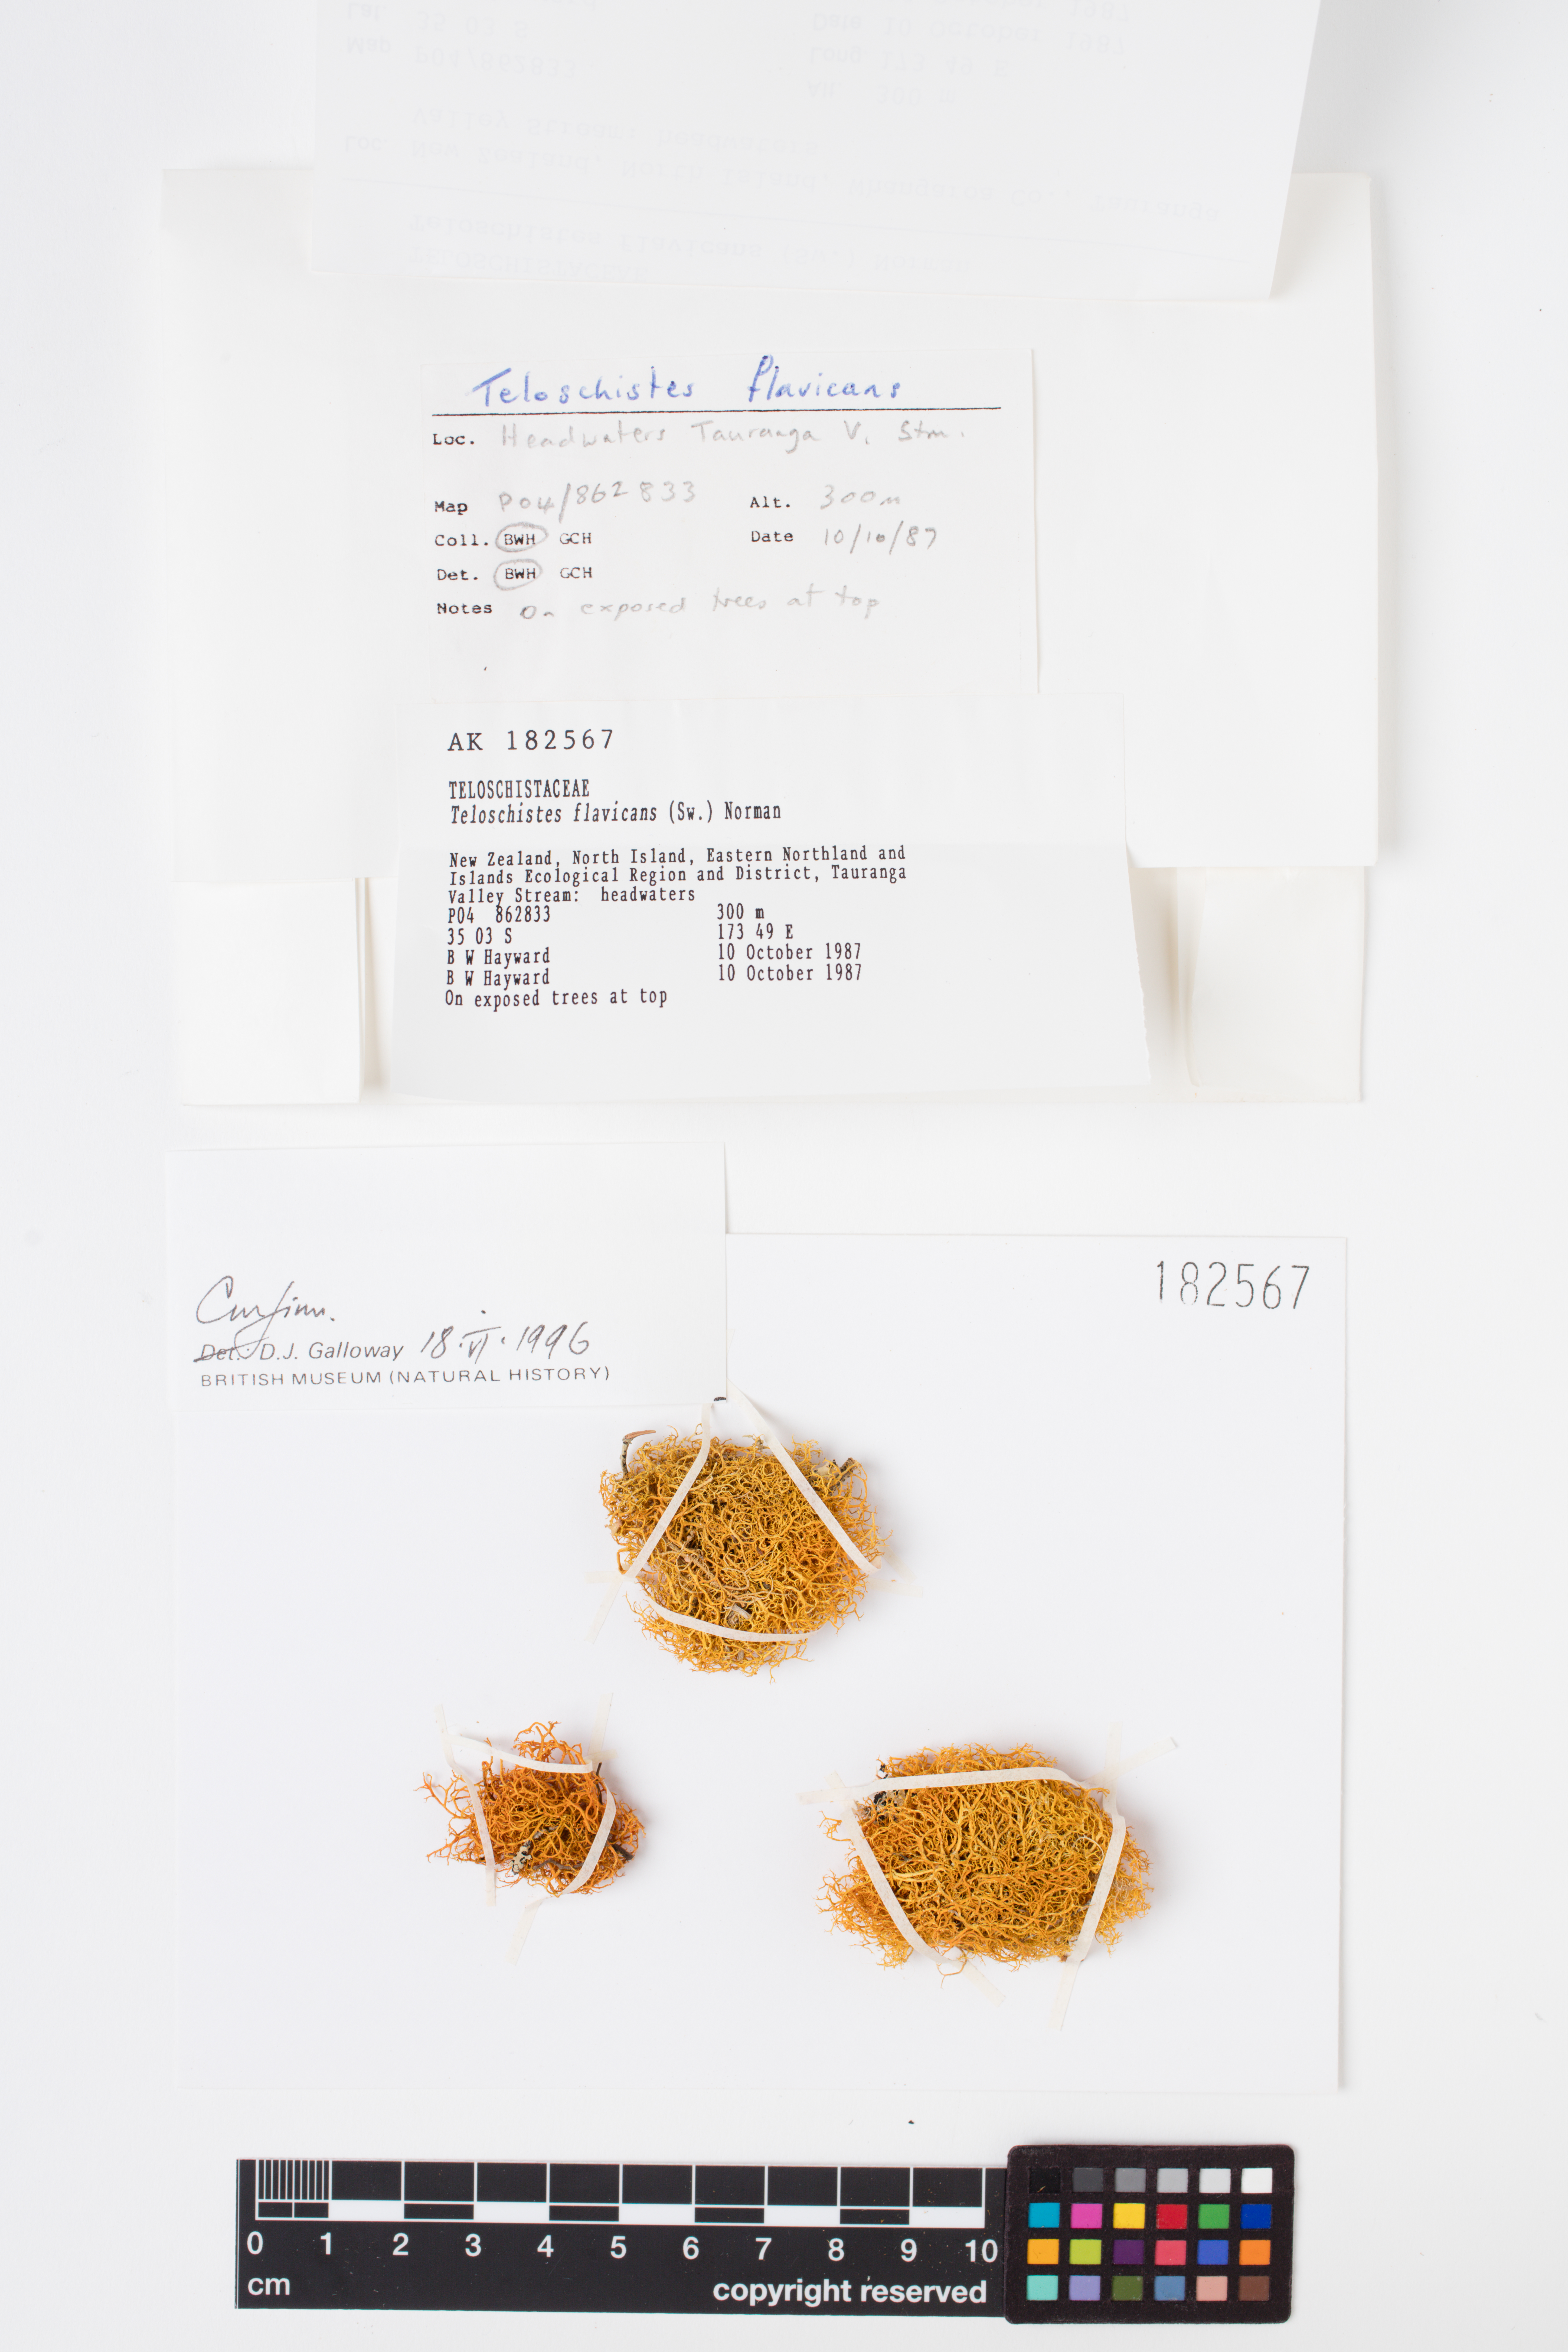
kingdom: Fungi
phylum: Ascomycota
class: Lecanoromycetes
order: Teloschistales
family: Teloschistaceae
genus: Teloschistes
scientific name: Teloschistes flavicans
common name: Golden hair-lichen
